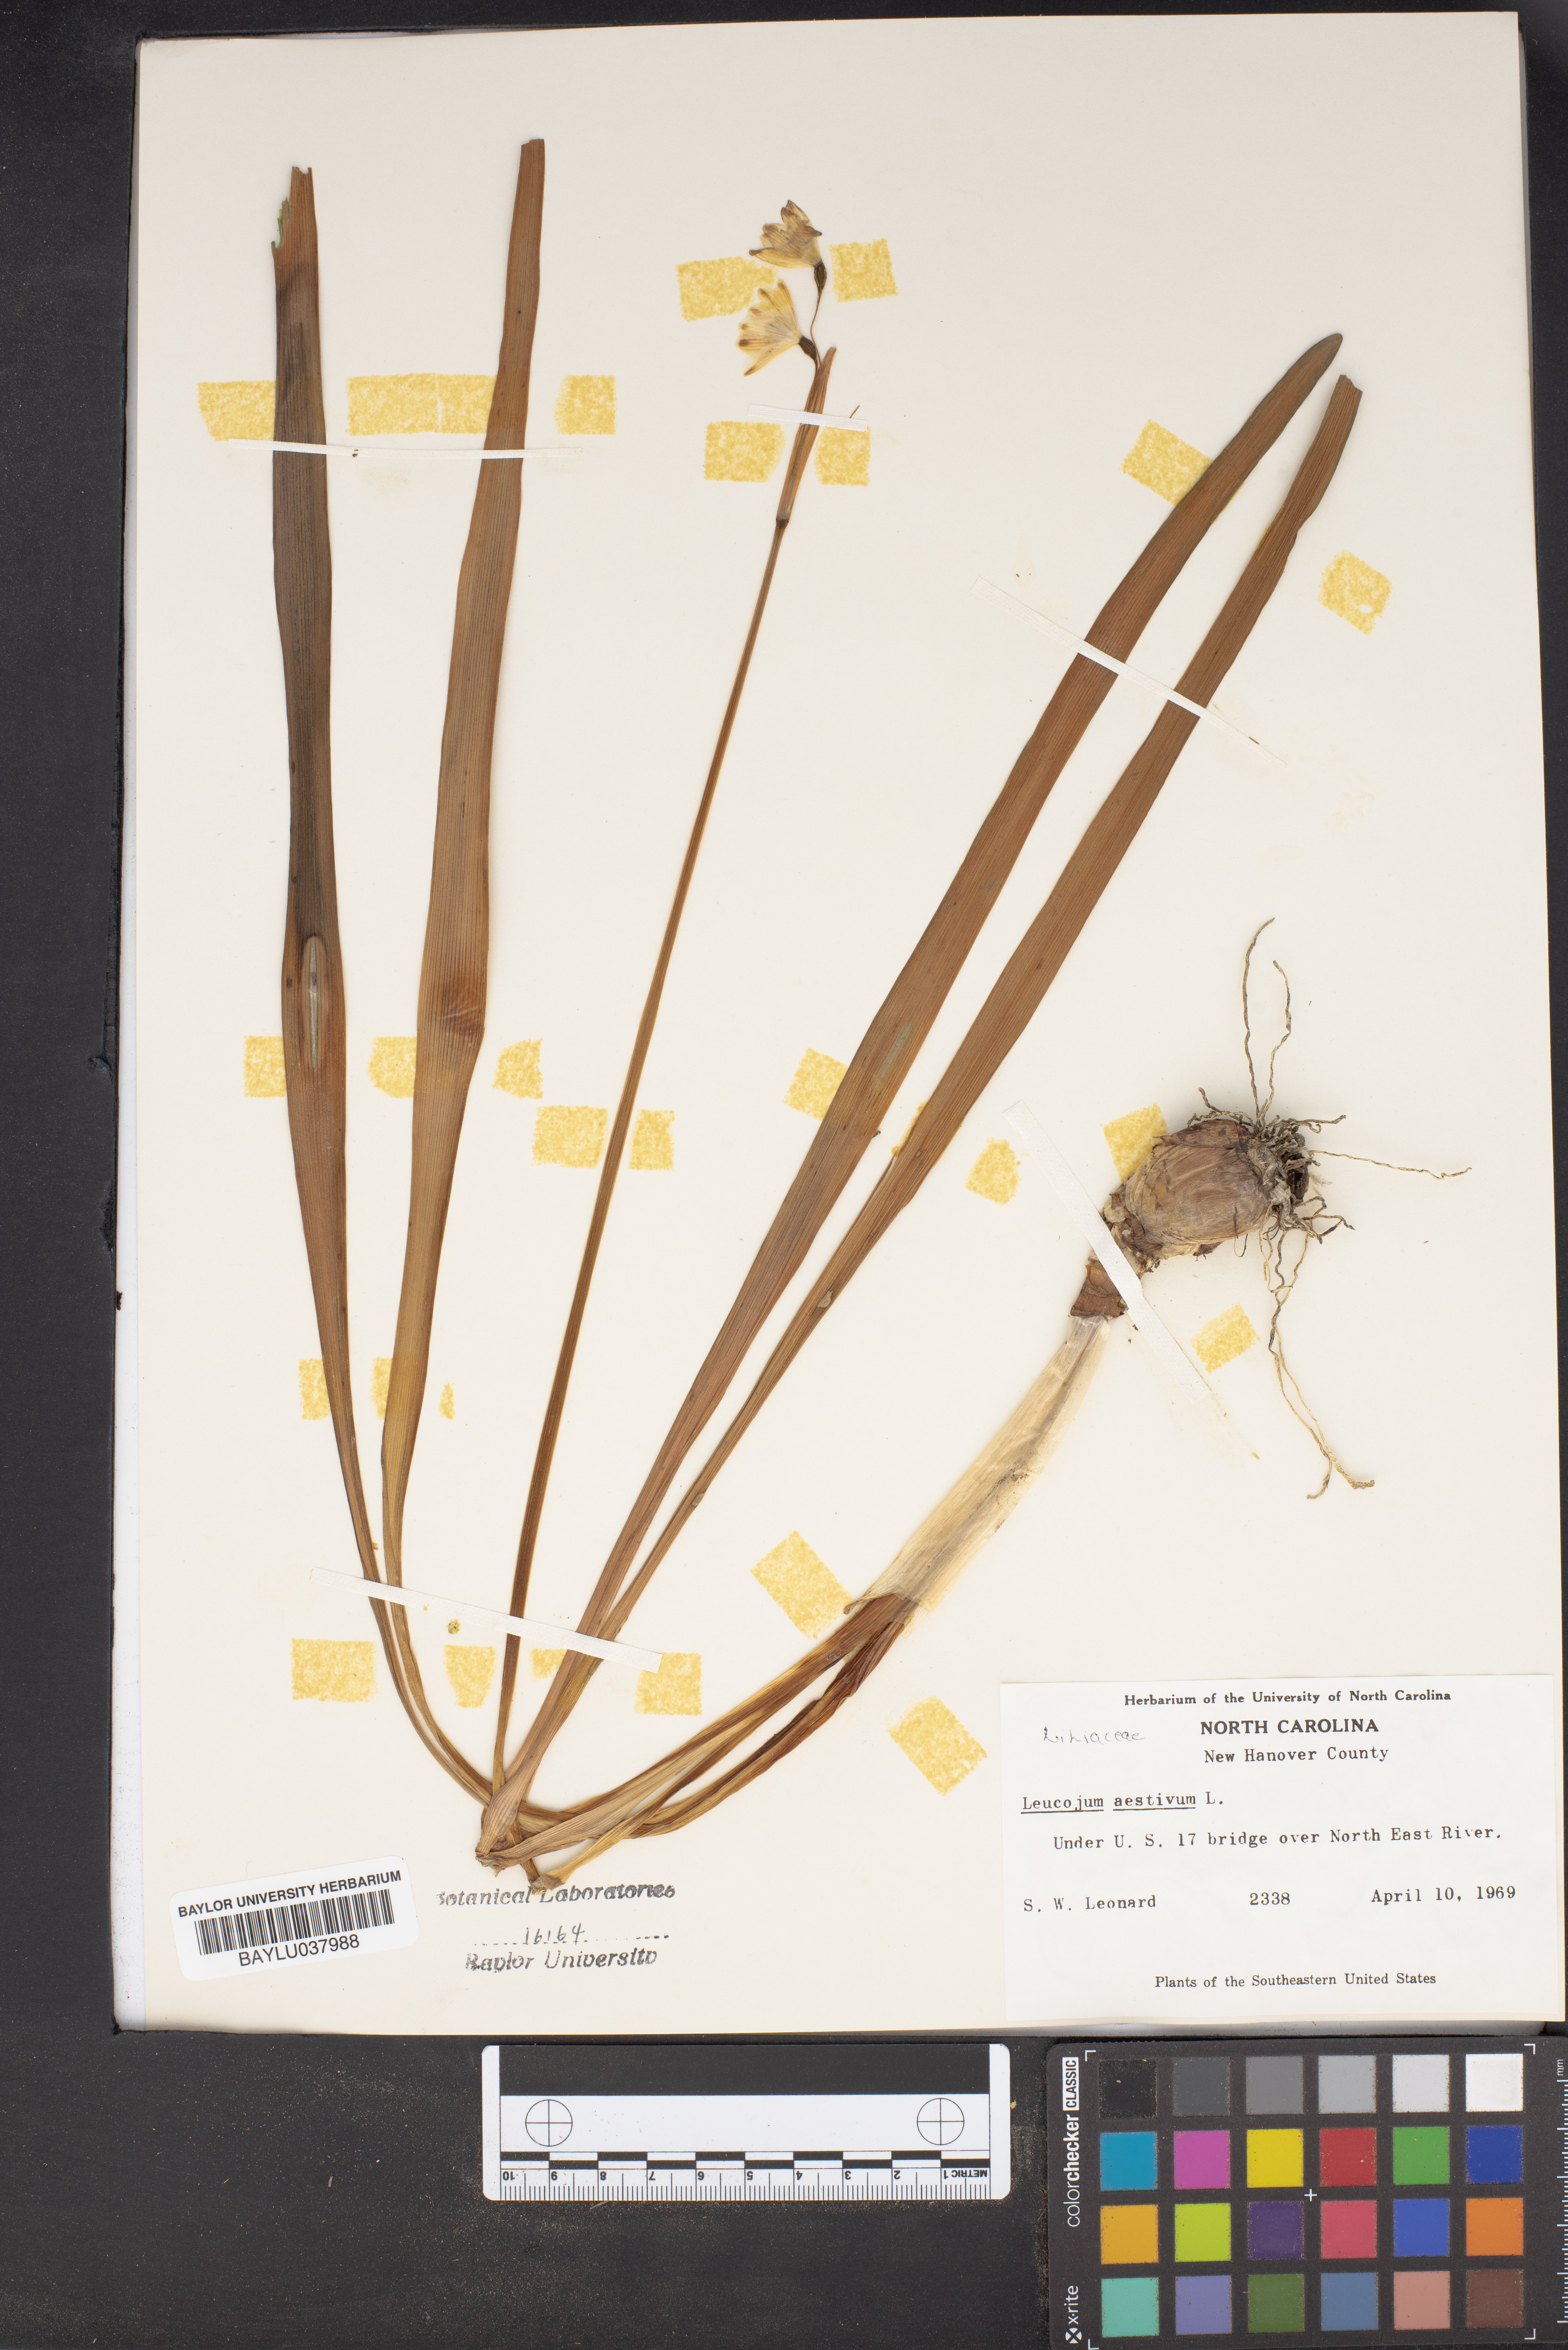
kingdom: Plantae
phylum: Tracheophyta
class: Liliopsida
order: Asparagales
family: Amaryllidaceae
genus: Leucojum
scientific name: Leucojum aestivum
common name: Summer snowflake
